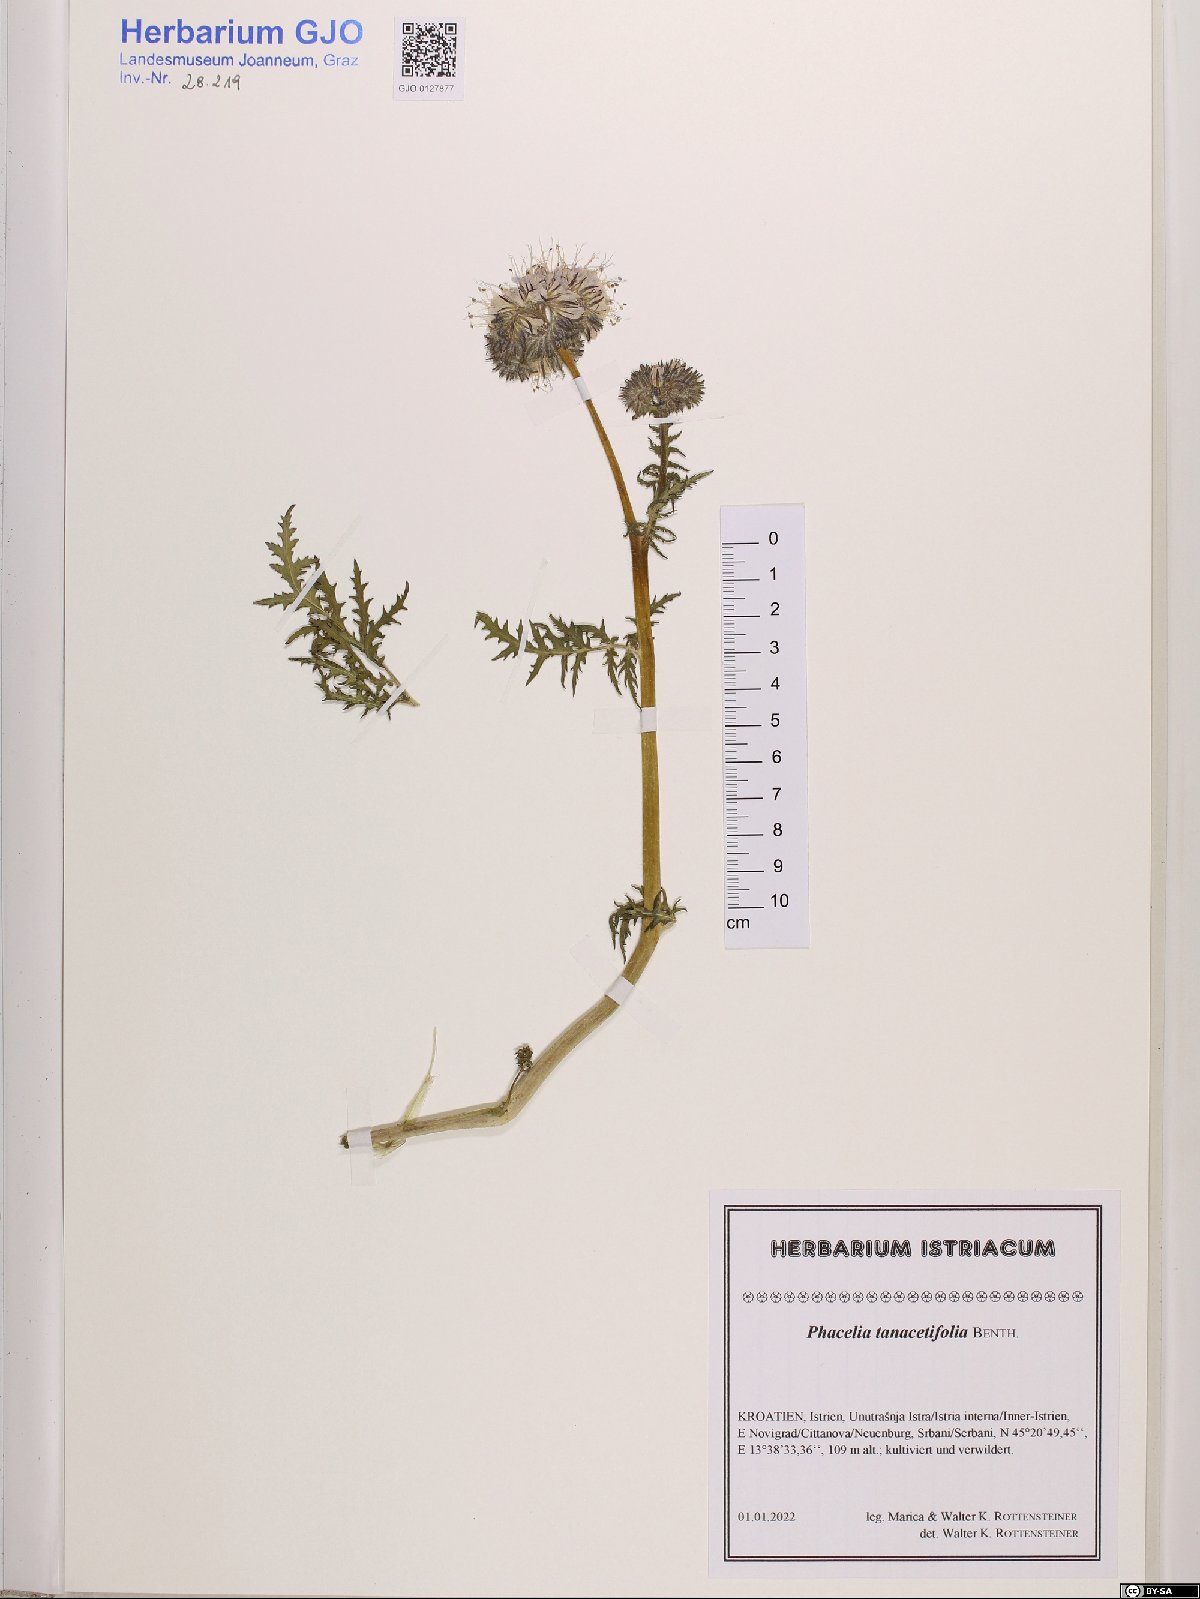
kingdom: Plantae
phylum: Tracheophyta
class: Magnoliopsida
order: Boraginales
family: Hydrophyllaceae
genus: Phacelia
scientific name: Phacelia tanacetifolia
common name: Phacelia
